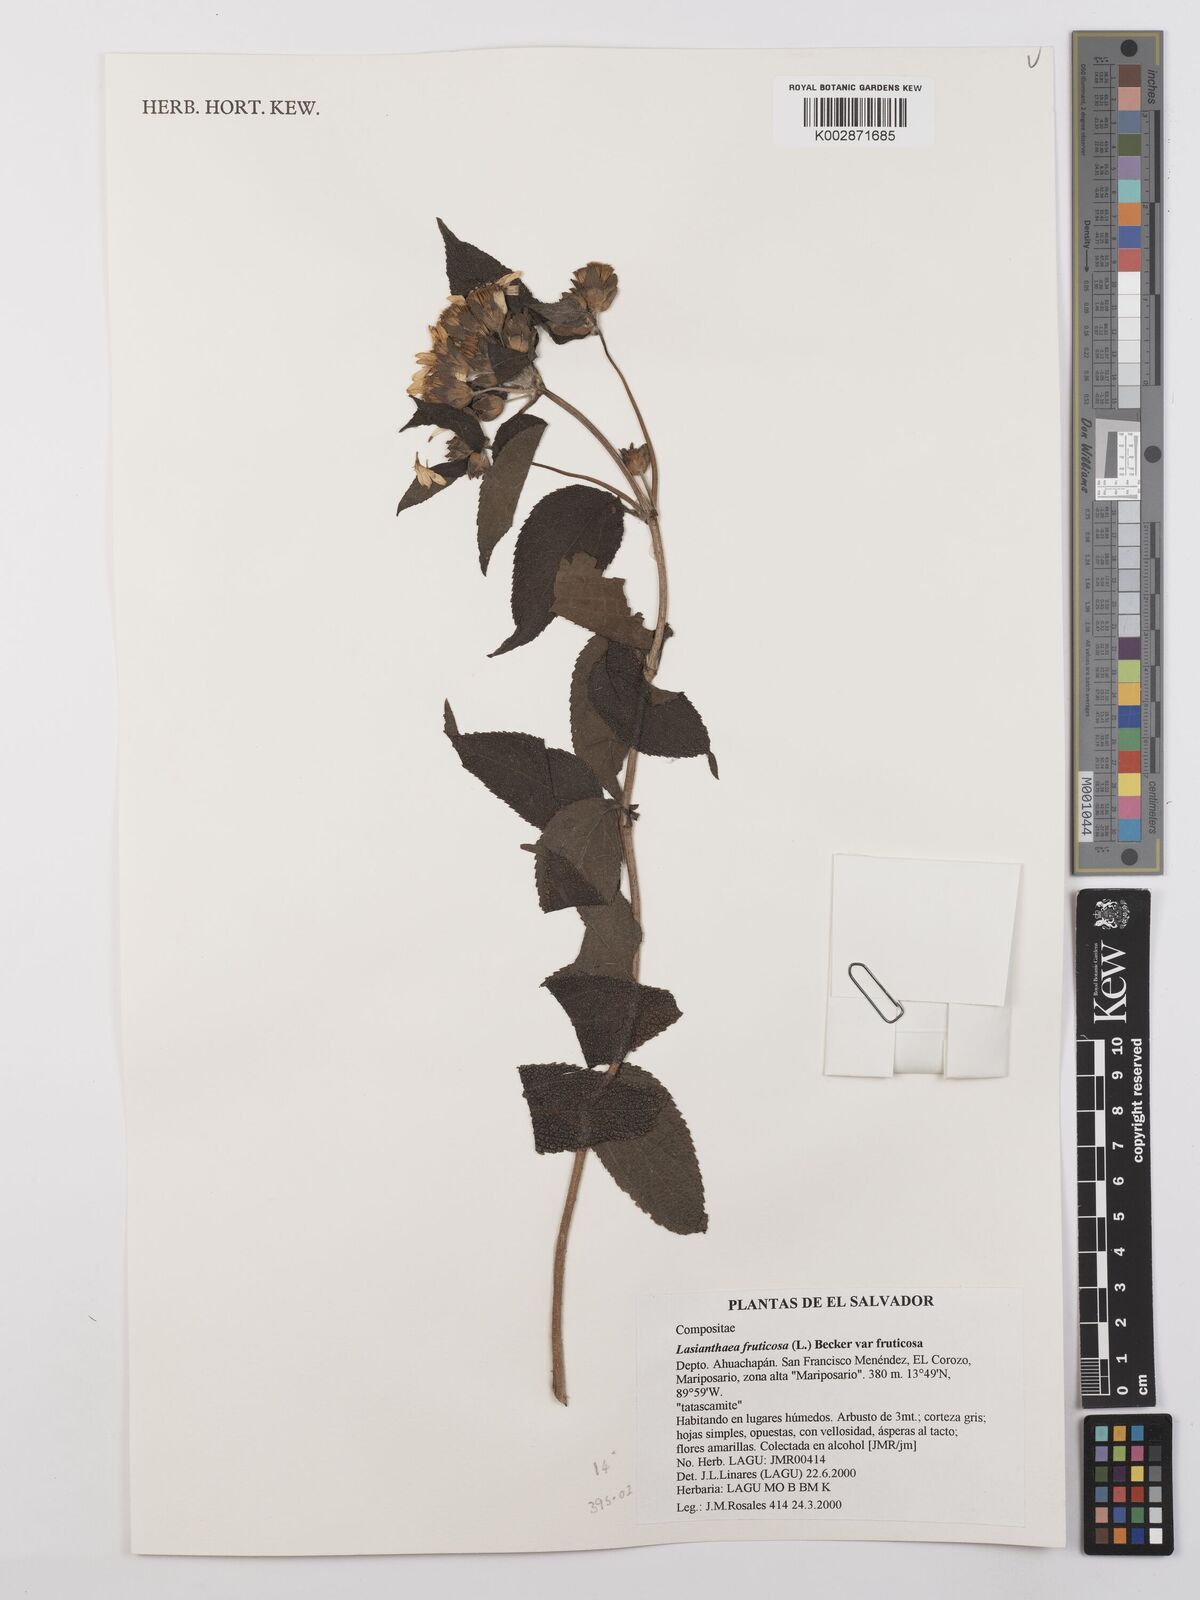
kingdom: Plantae
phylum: Tracheophyta
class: Magnoliopsida
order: Asterales
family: Asteraceae
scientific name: Asteraceae
